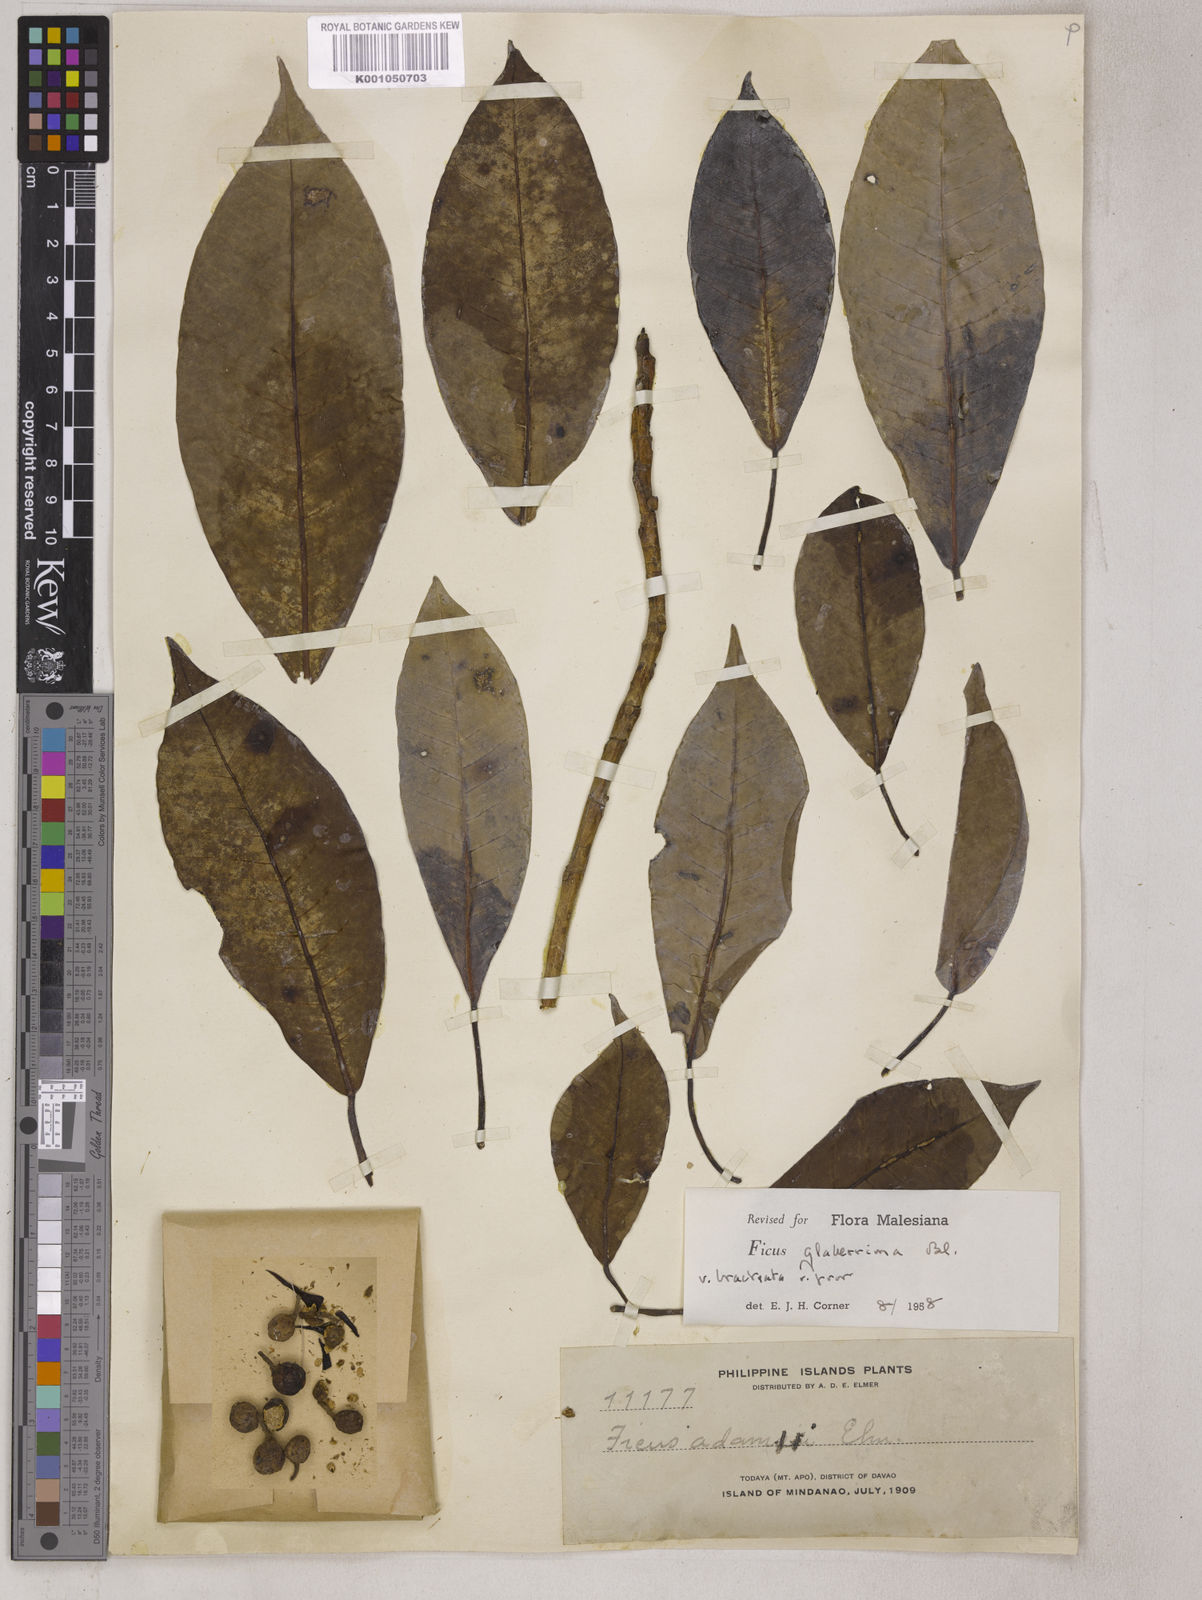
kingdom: Plantae
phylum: Tracheophyta
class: Magnoliopsida
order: Rosales
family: Moraceae
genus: Ficus
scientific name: Ficus glaberrima
